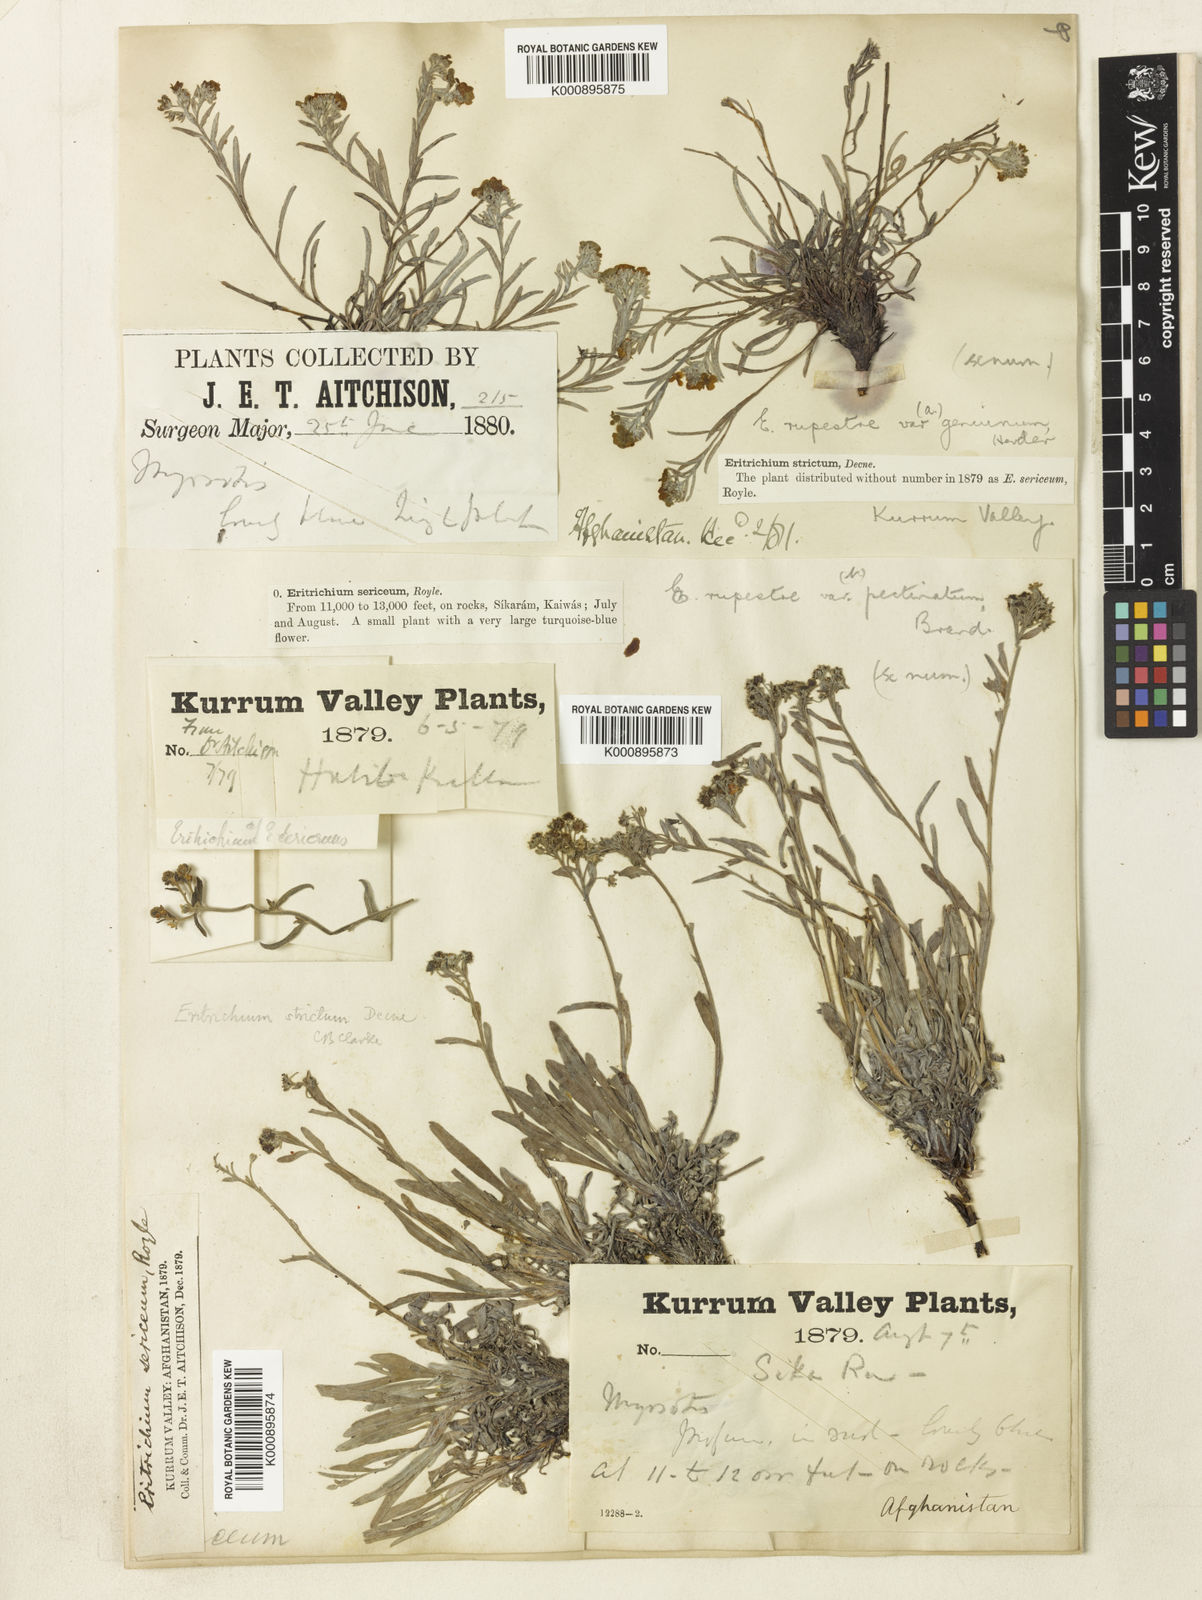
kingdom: Plantae
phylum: Tracheophyta
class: Magnoliopsida
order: Boraginales
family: Boraginaceae
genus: Eritrichium
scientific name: Eritrichium canum
